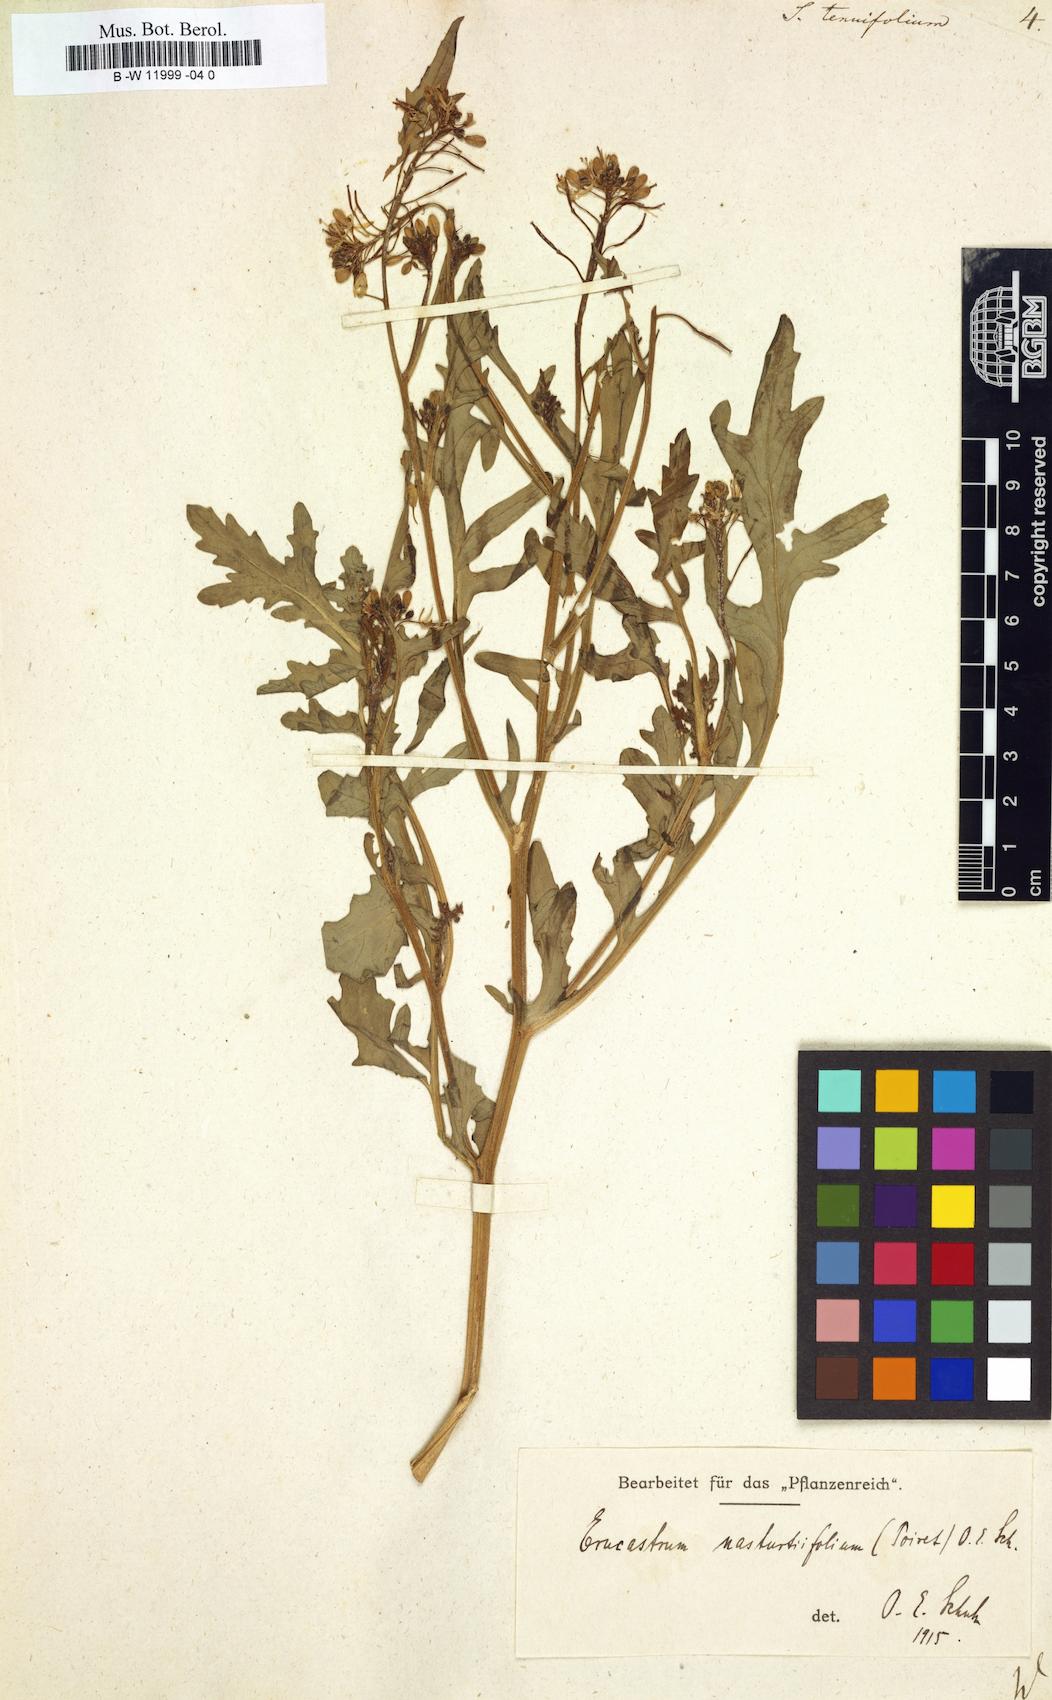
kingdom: Plantae
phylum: Tracheophyta
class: Magnoliopsida
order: Brassicales
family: Brassicaceae
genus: Sisymbrium
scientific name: Sisymbrium tenuifolium
